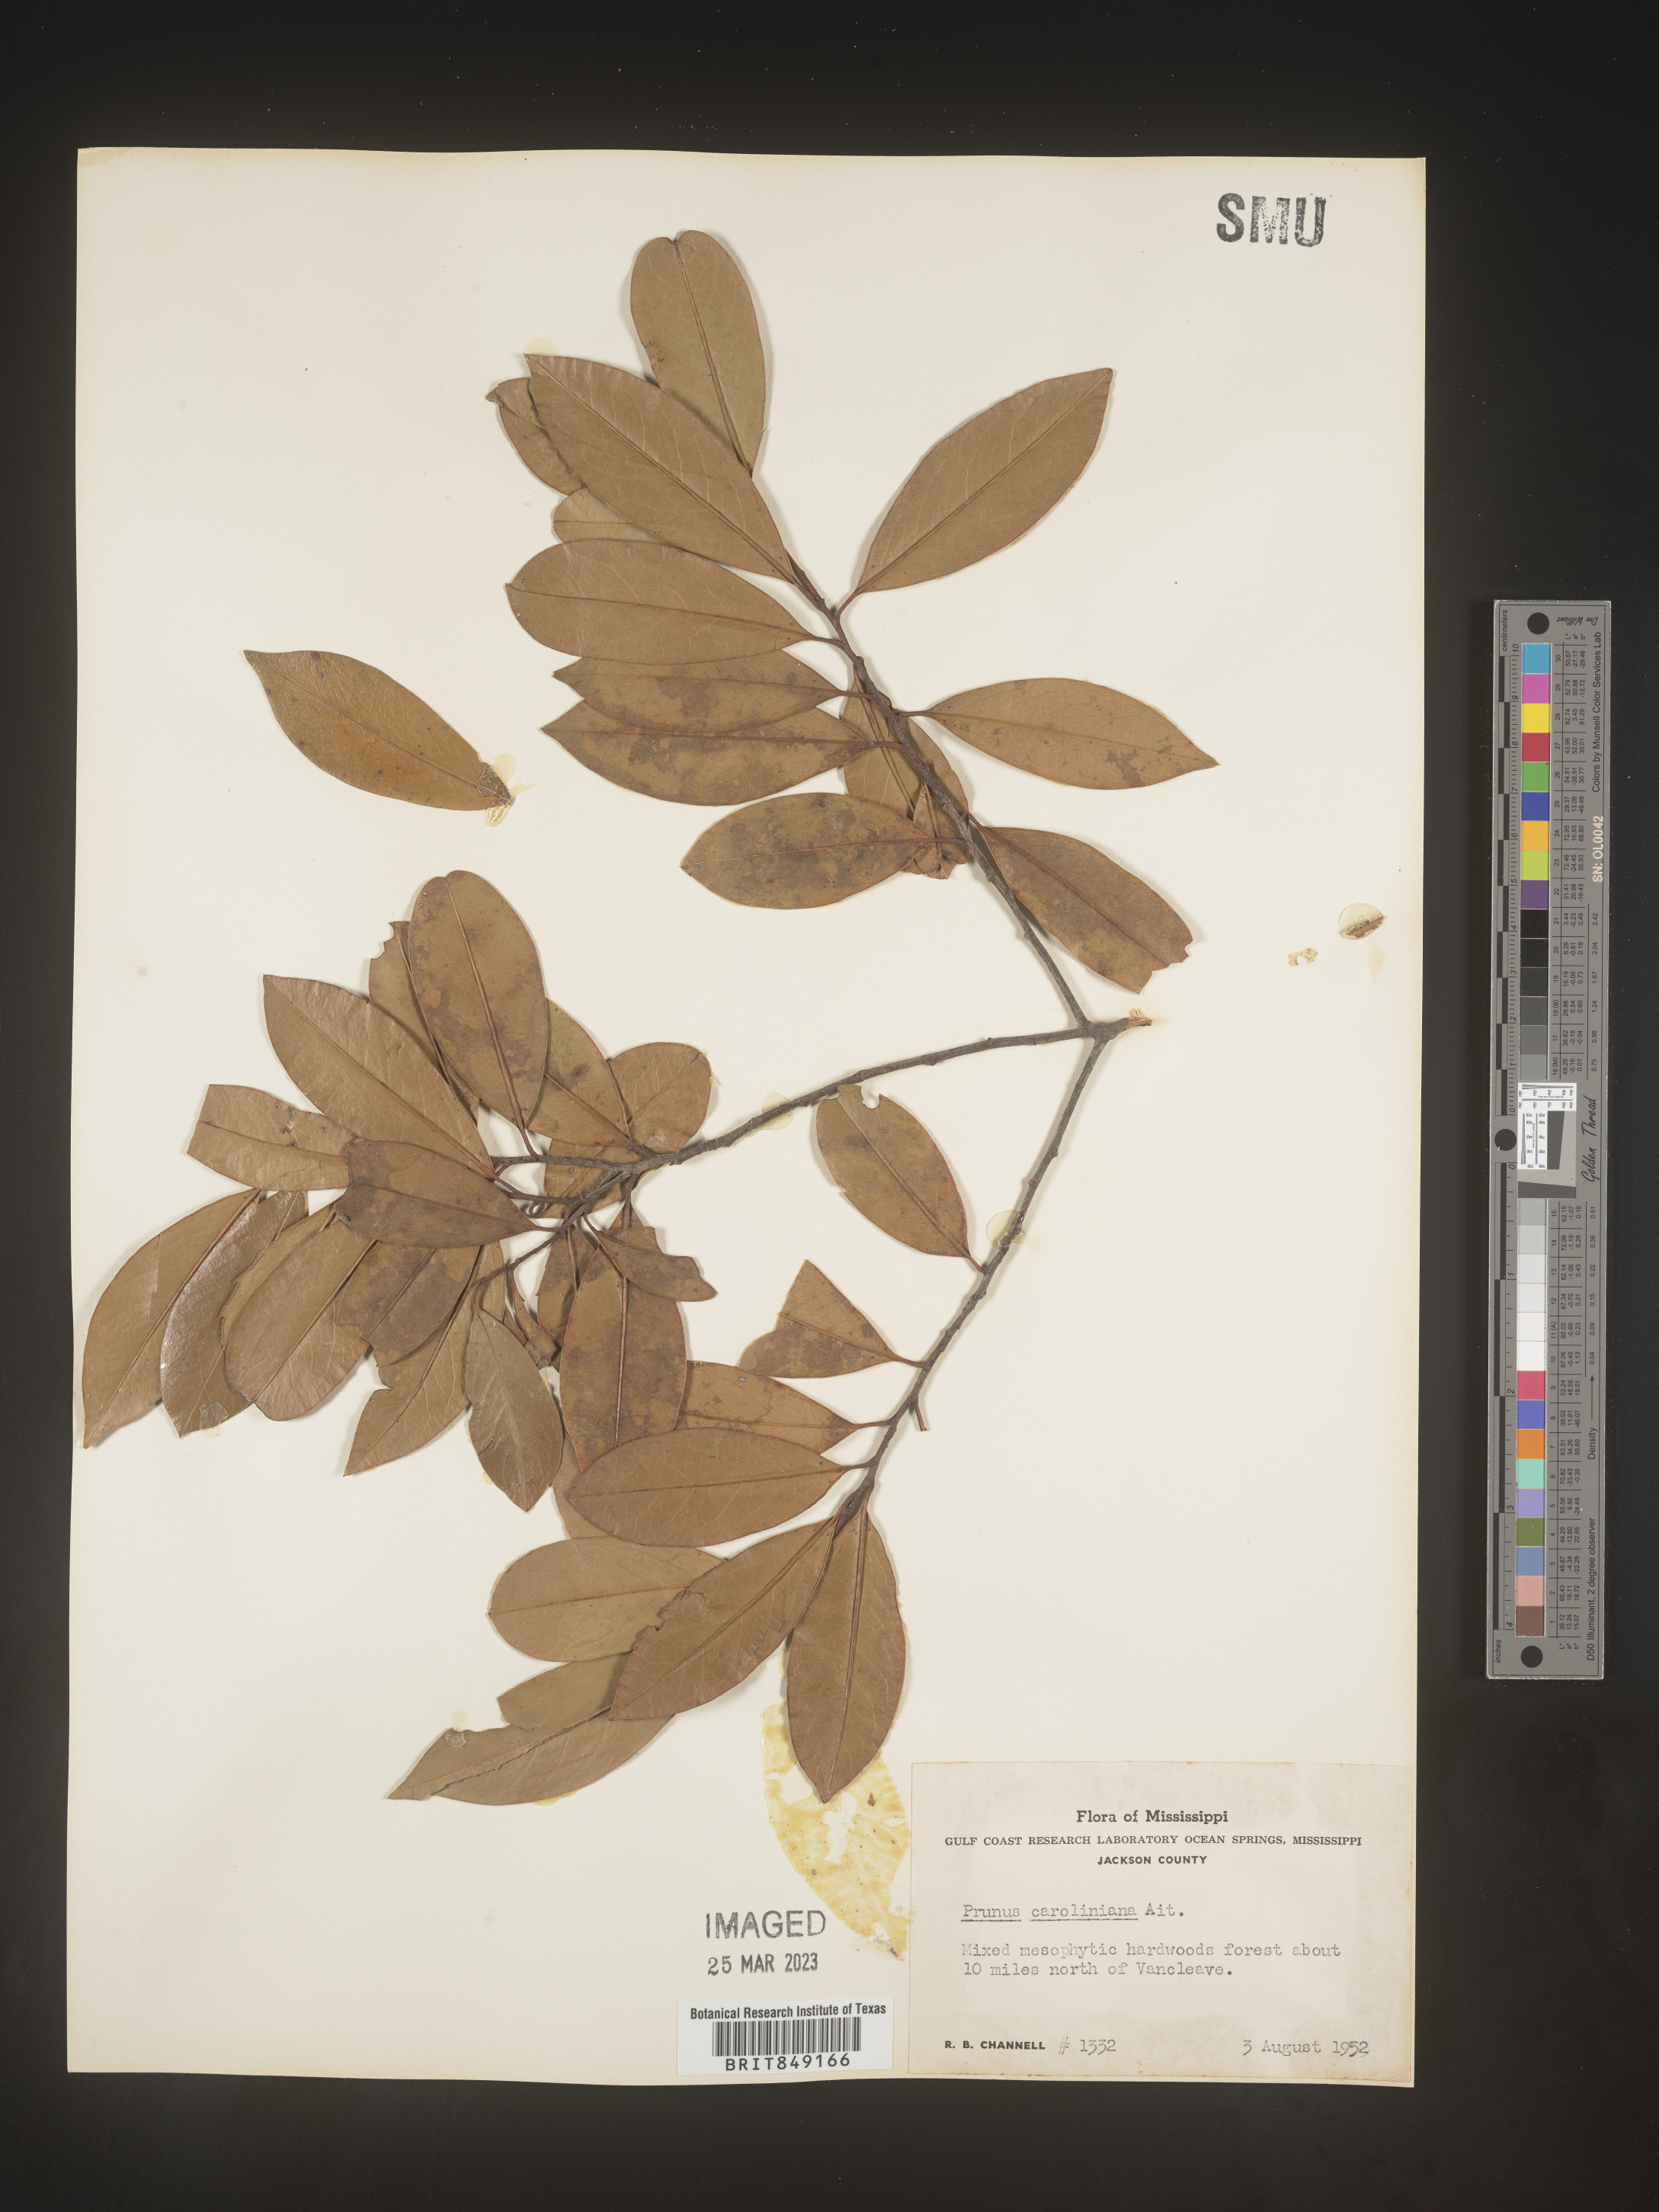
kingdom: Plantae
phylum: Tracheophyta
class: Magnoliopsida
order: Rosales
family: Rosaceae
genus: Prunus
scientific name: Prunus caroliniana
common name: Carolina laurel cherry
